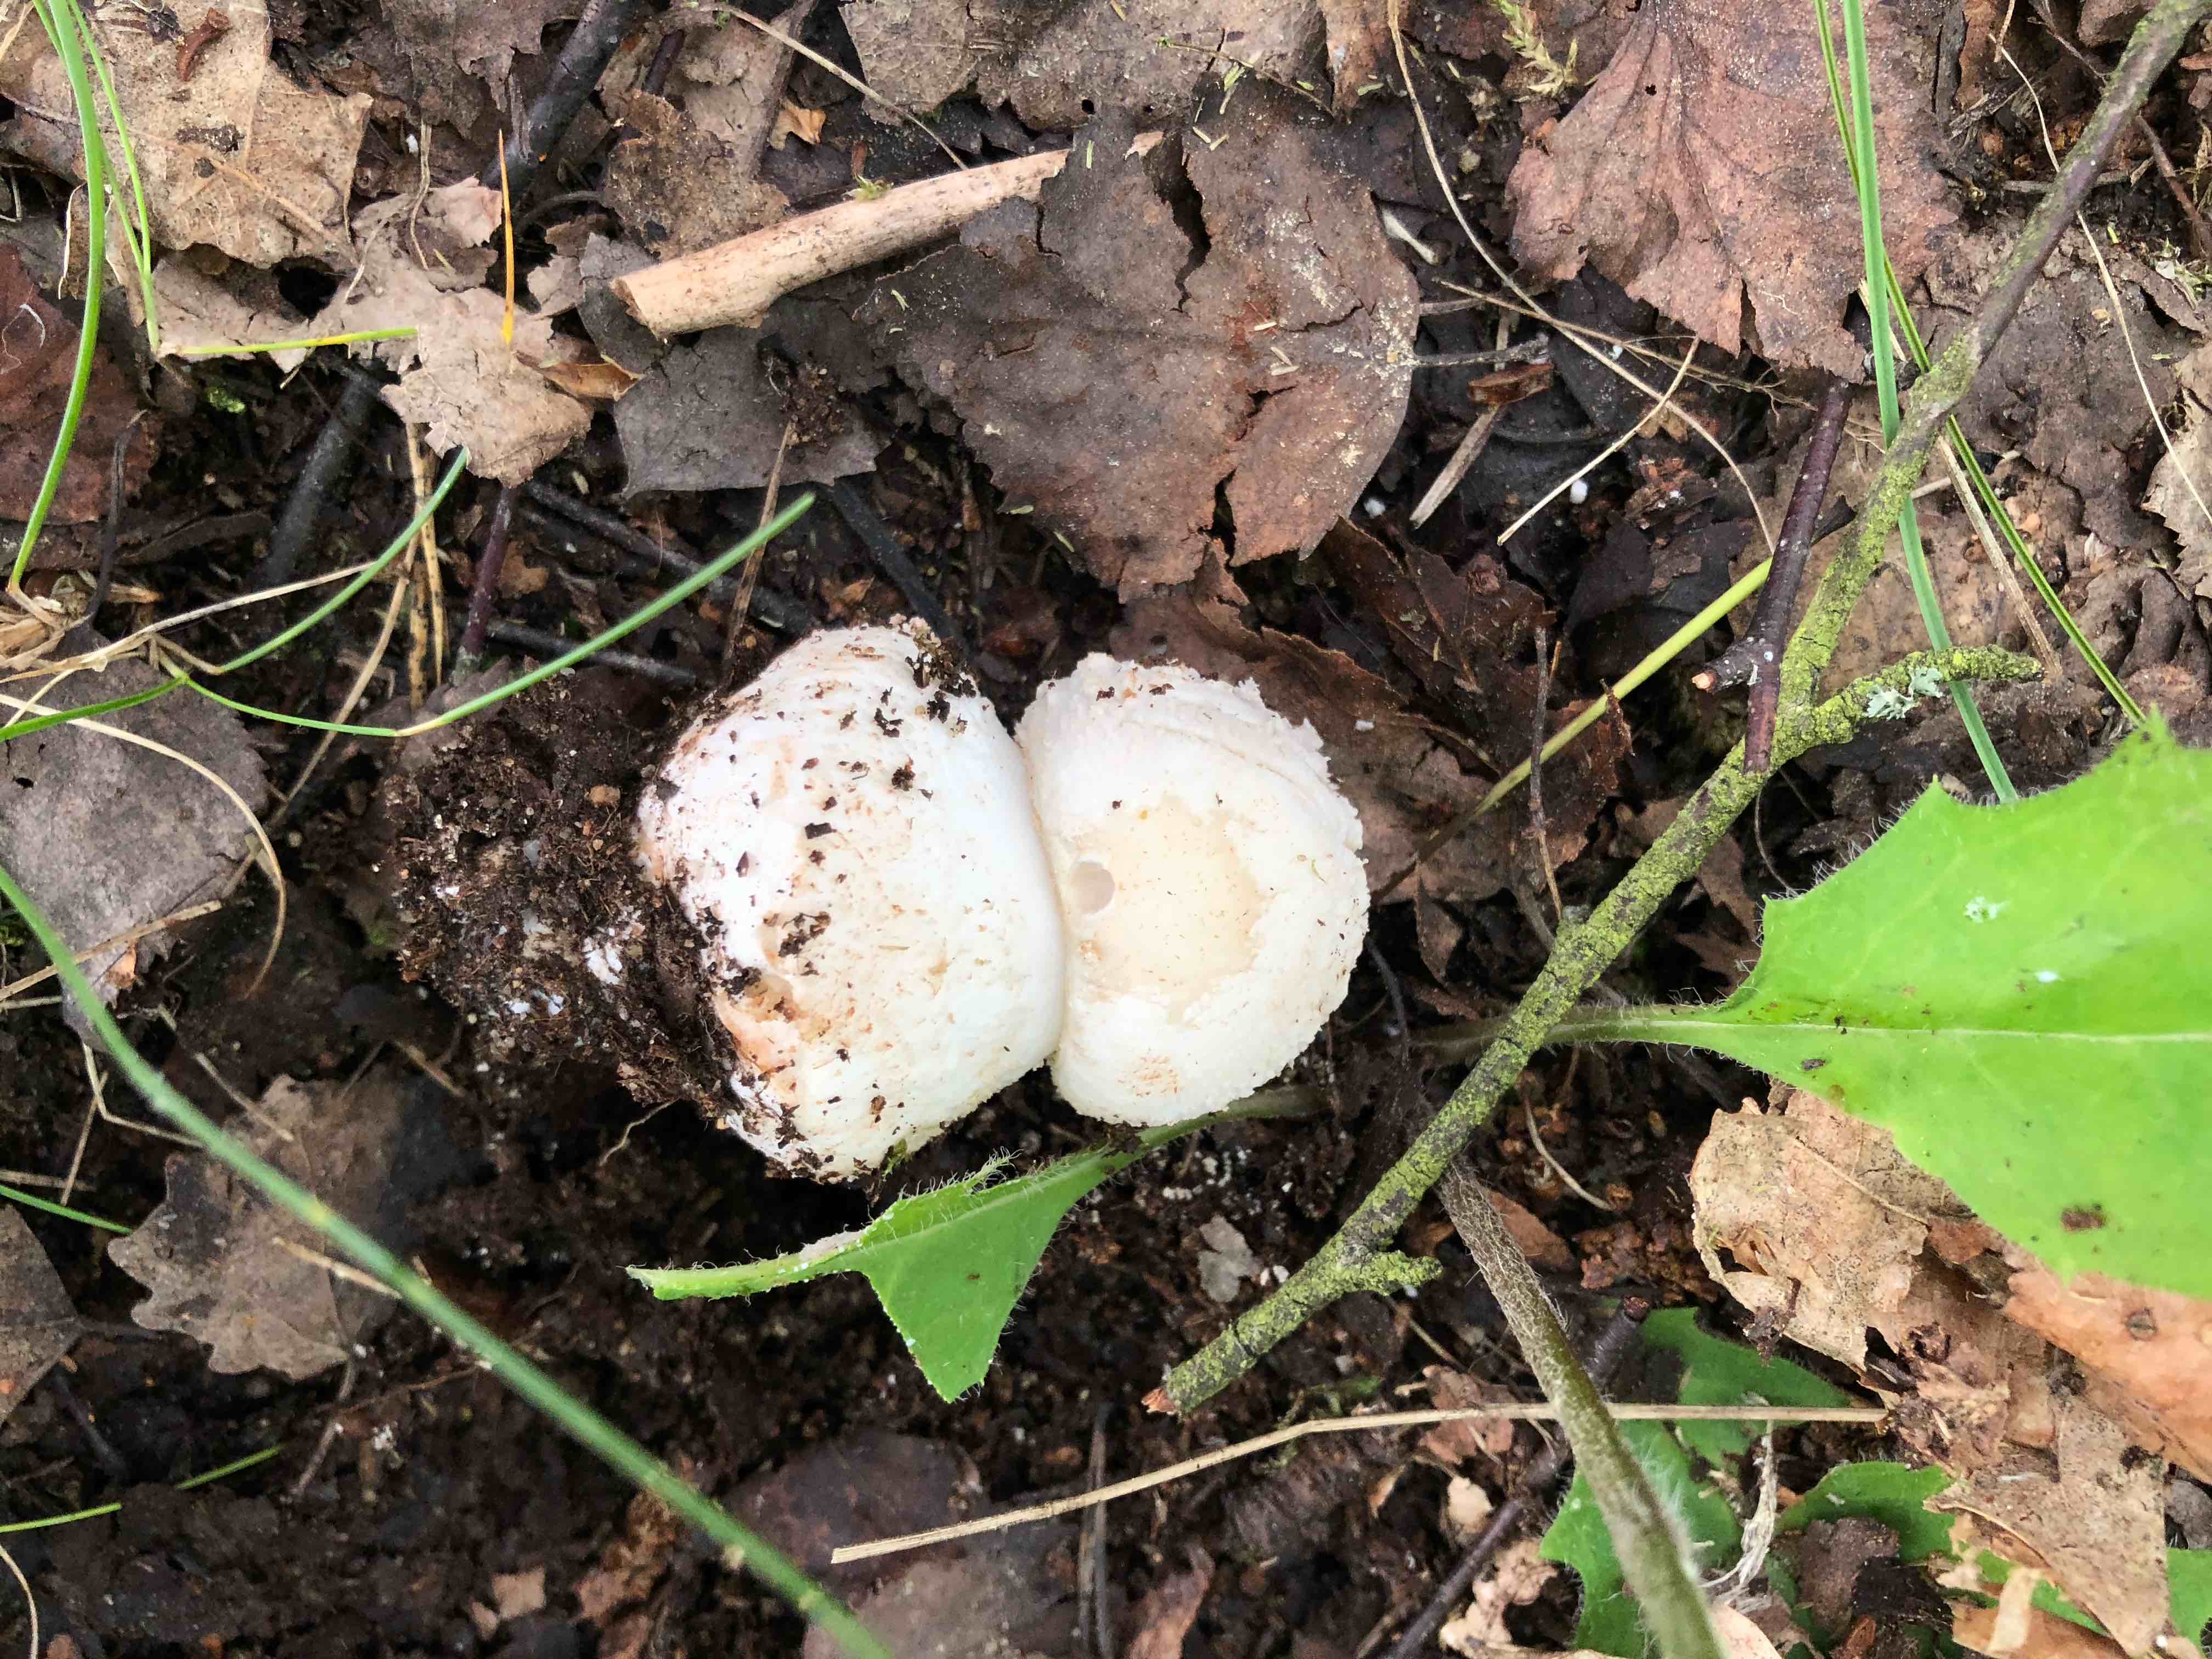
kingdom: Fungi
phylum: Basidiomycota
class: Agaricomycetes
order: Agaricales
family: Amanitaceae
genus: Amanita
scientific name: Amanita
